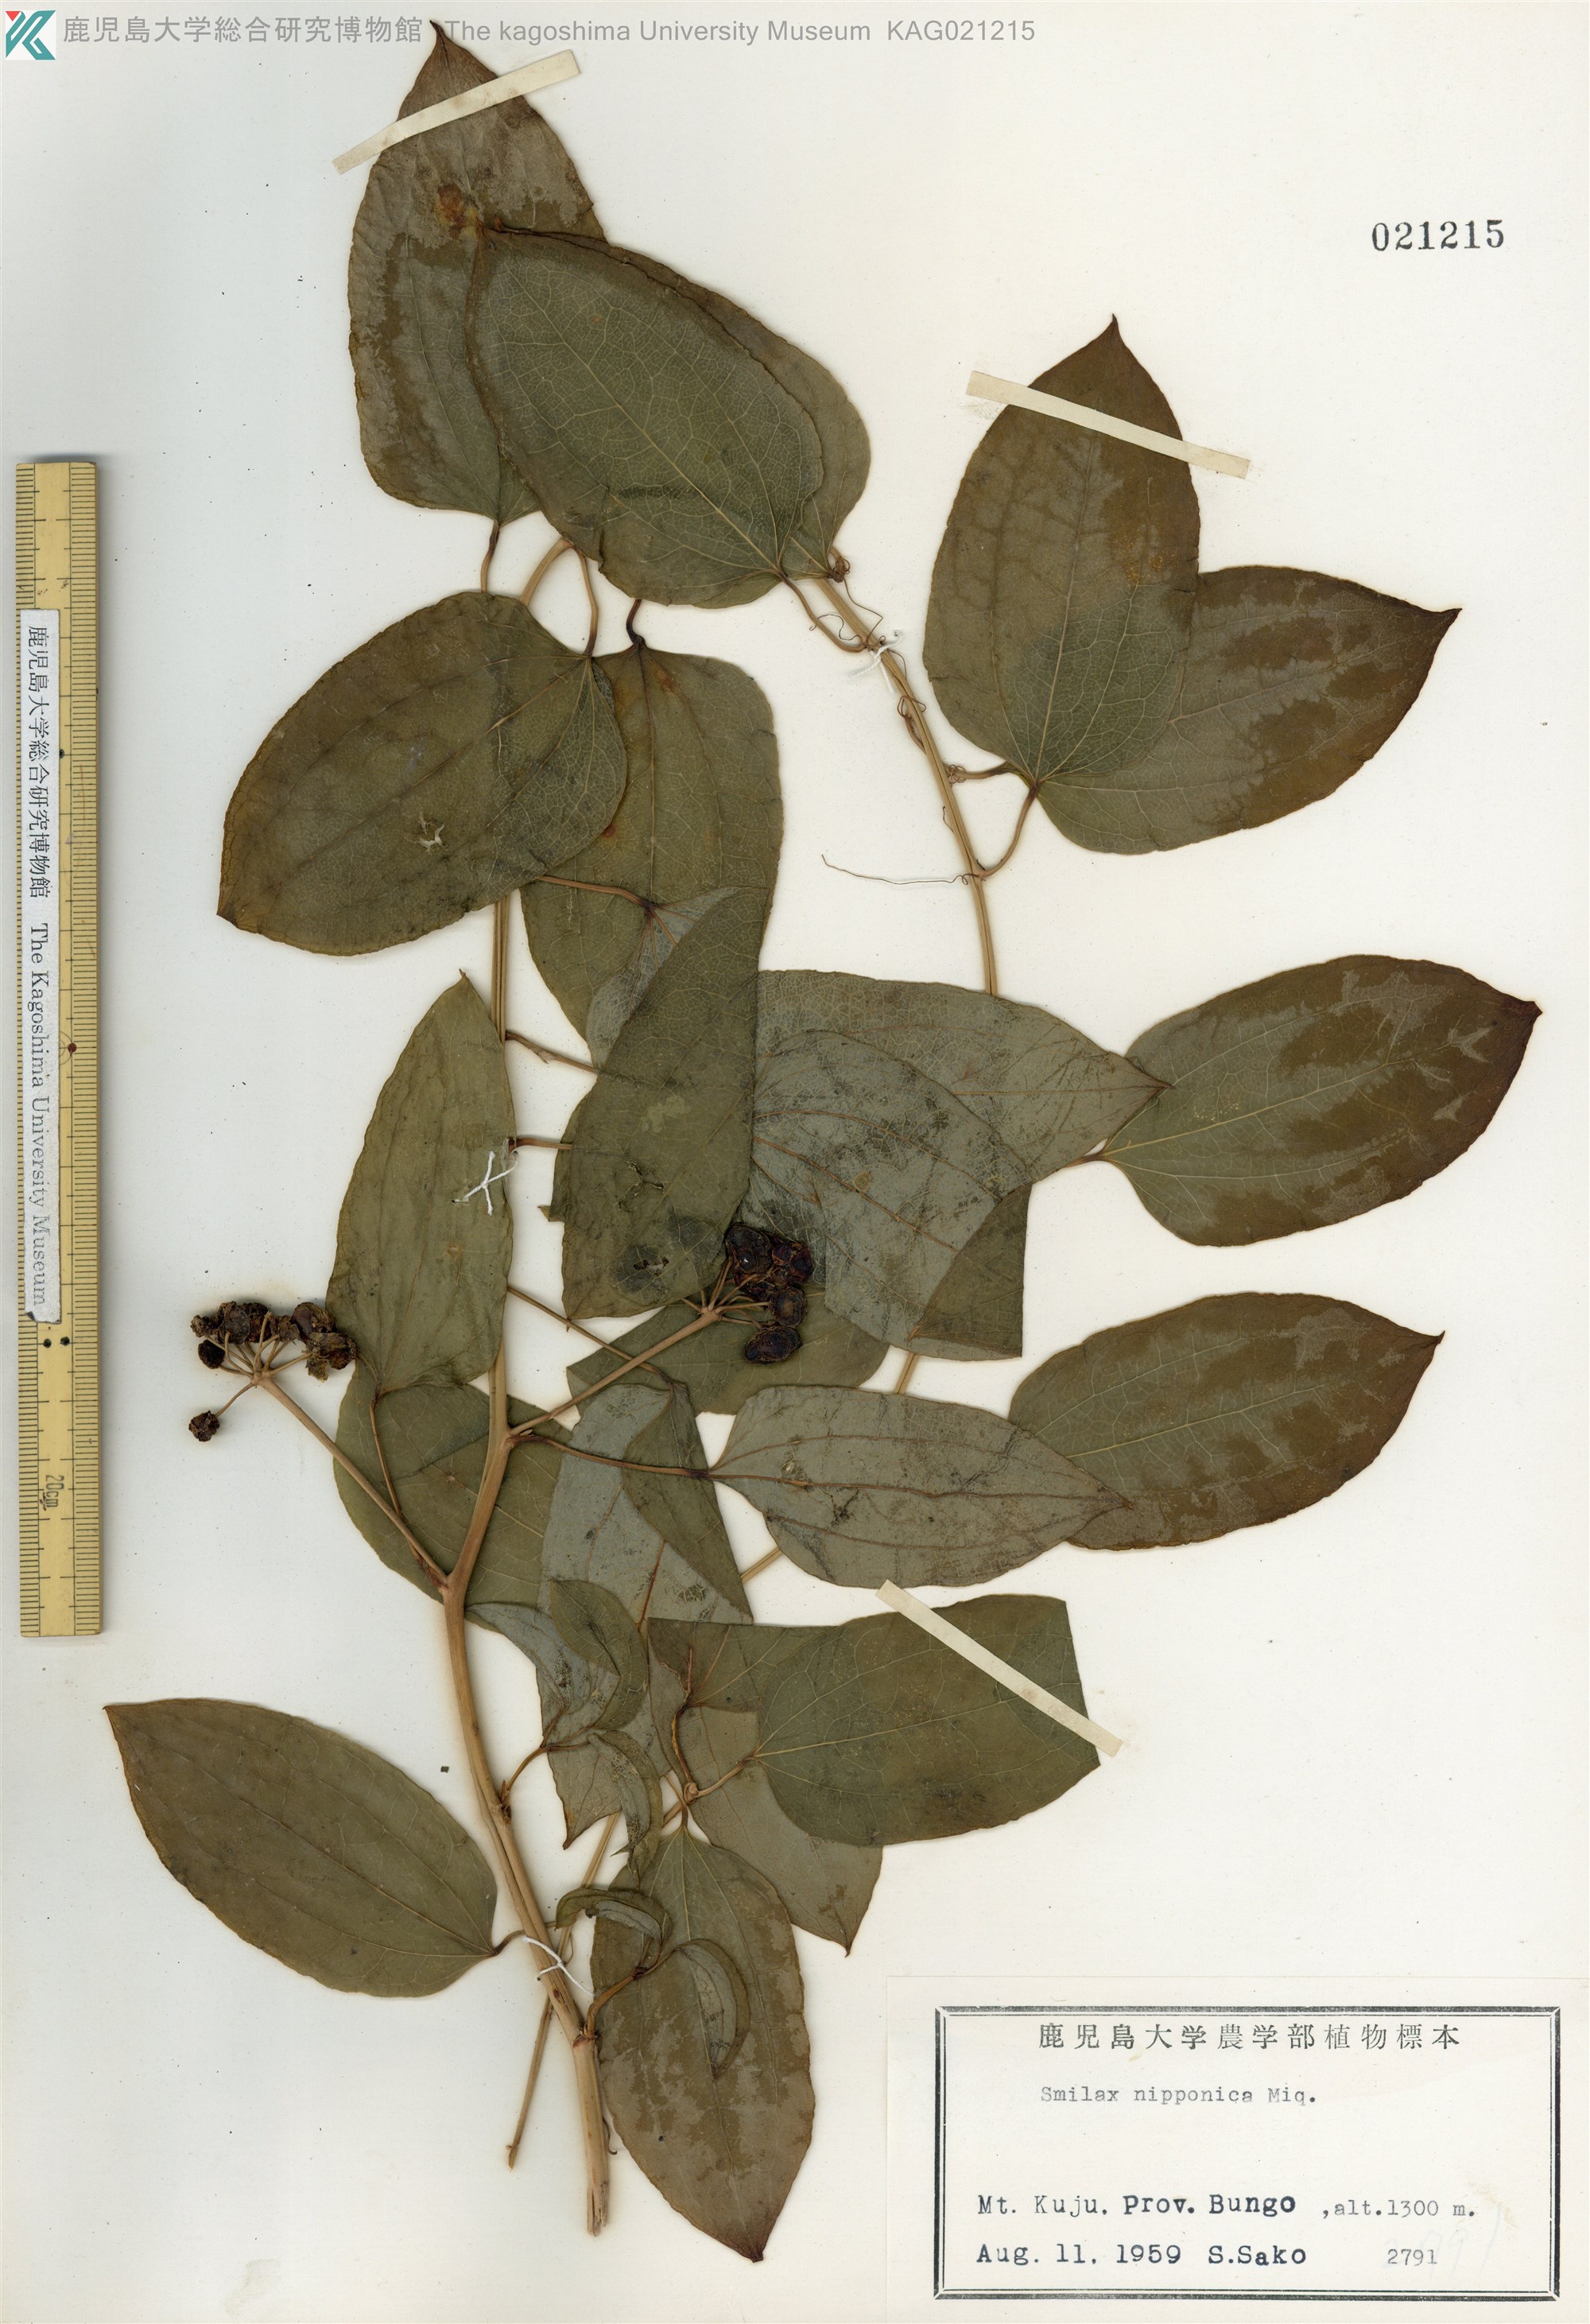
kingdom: Plantae
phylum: Tracheophyta
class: Liliopsida
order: Liliales
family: Smilacaceae
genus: Smilax
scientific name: Smilax nipponica
